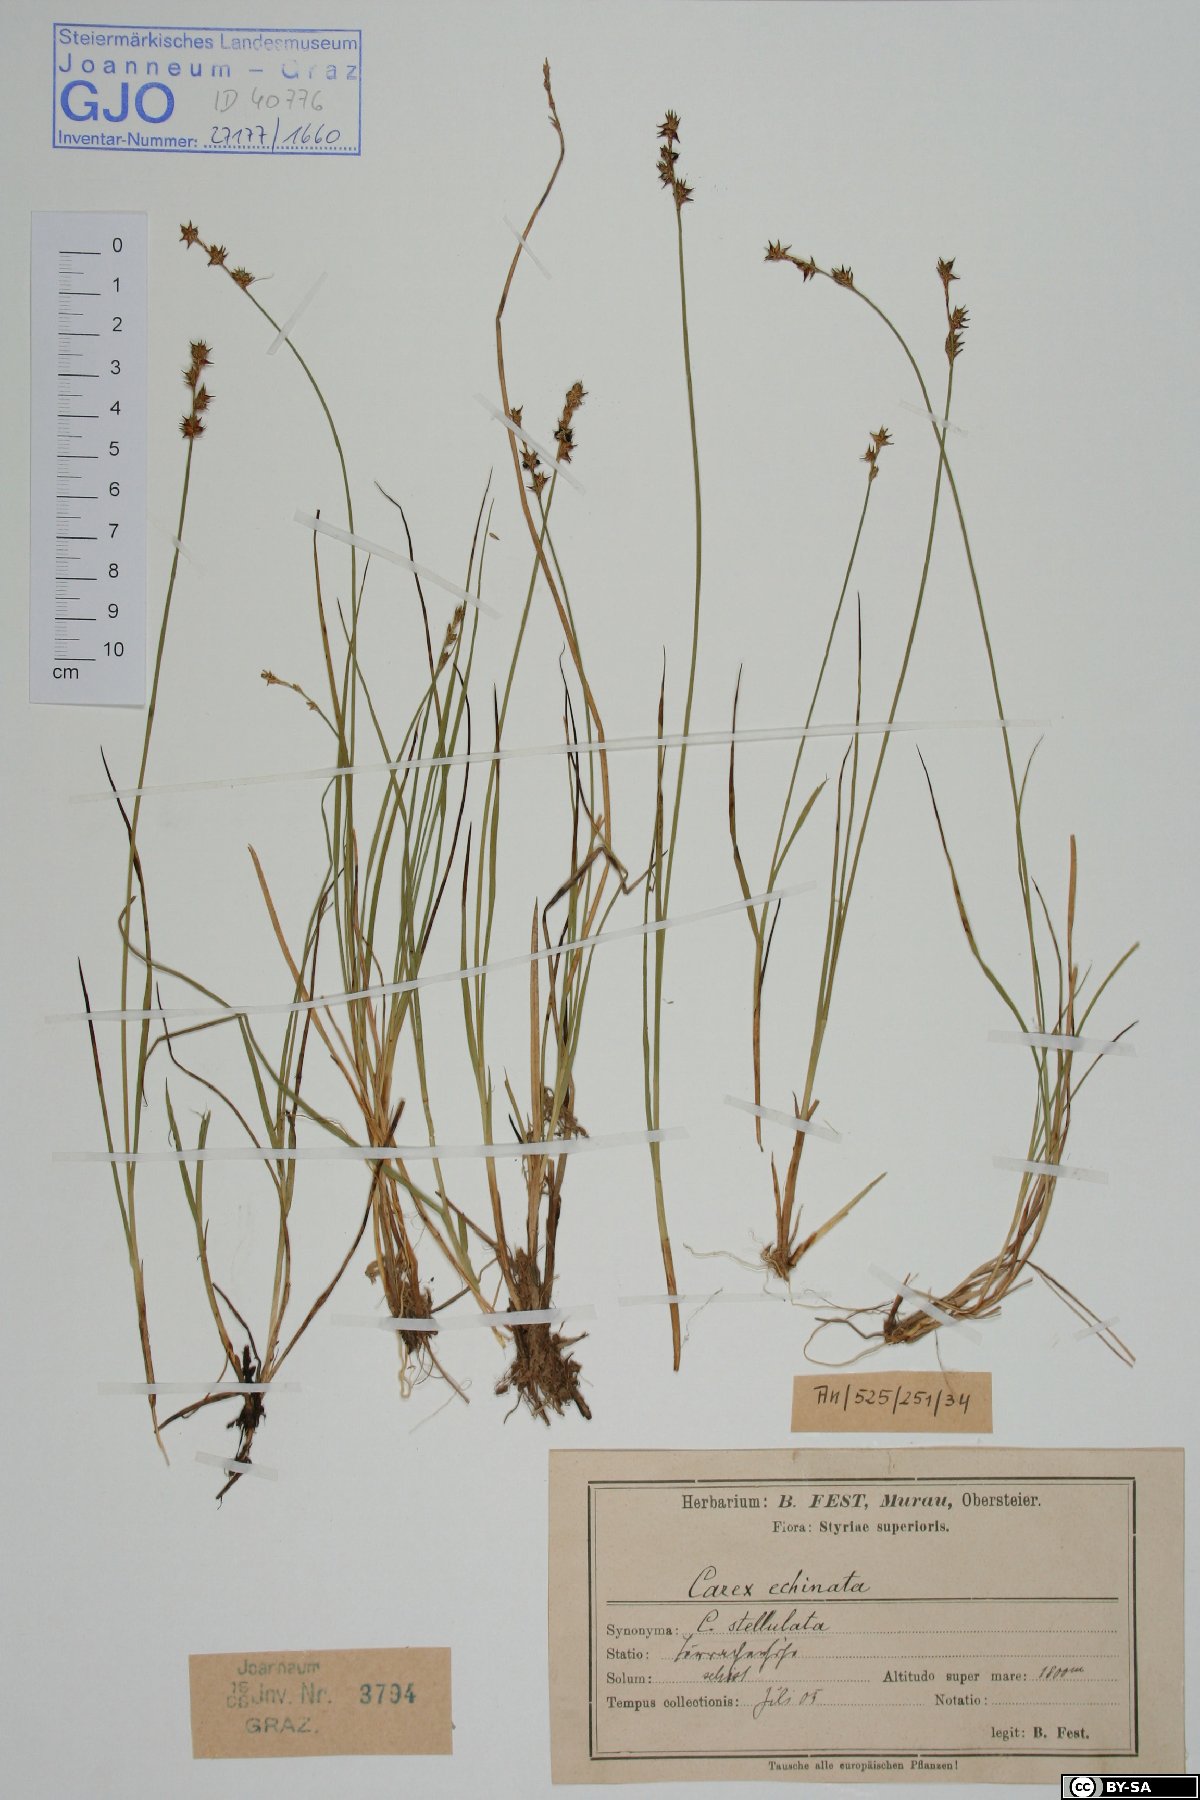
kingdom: Plantae
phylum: Tracheophyta
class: Liliopsida
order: Poales
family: Cyperaceae
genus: Carex
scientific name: Carex echinata
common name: Star sedge
